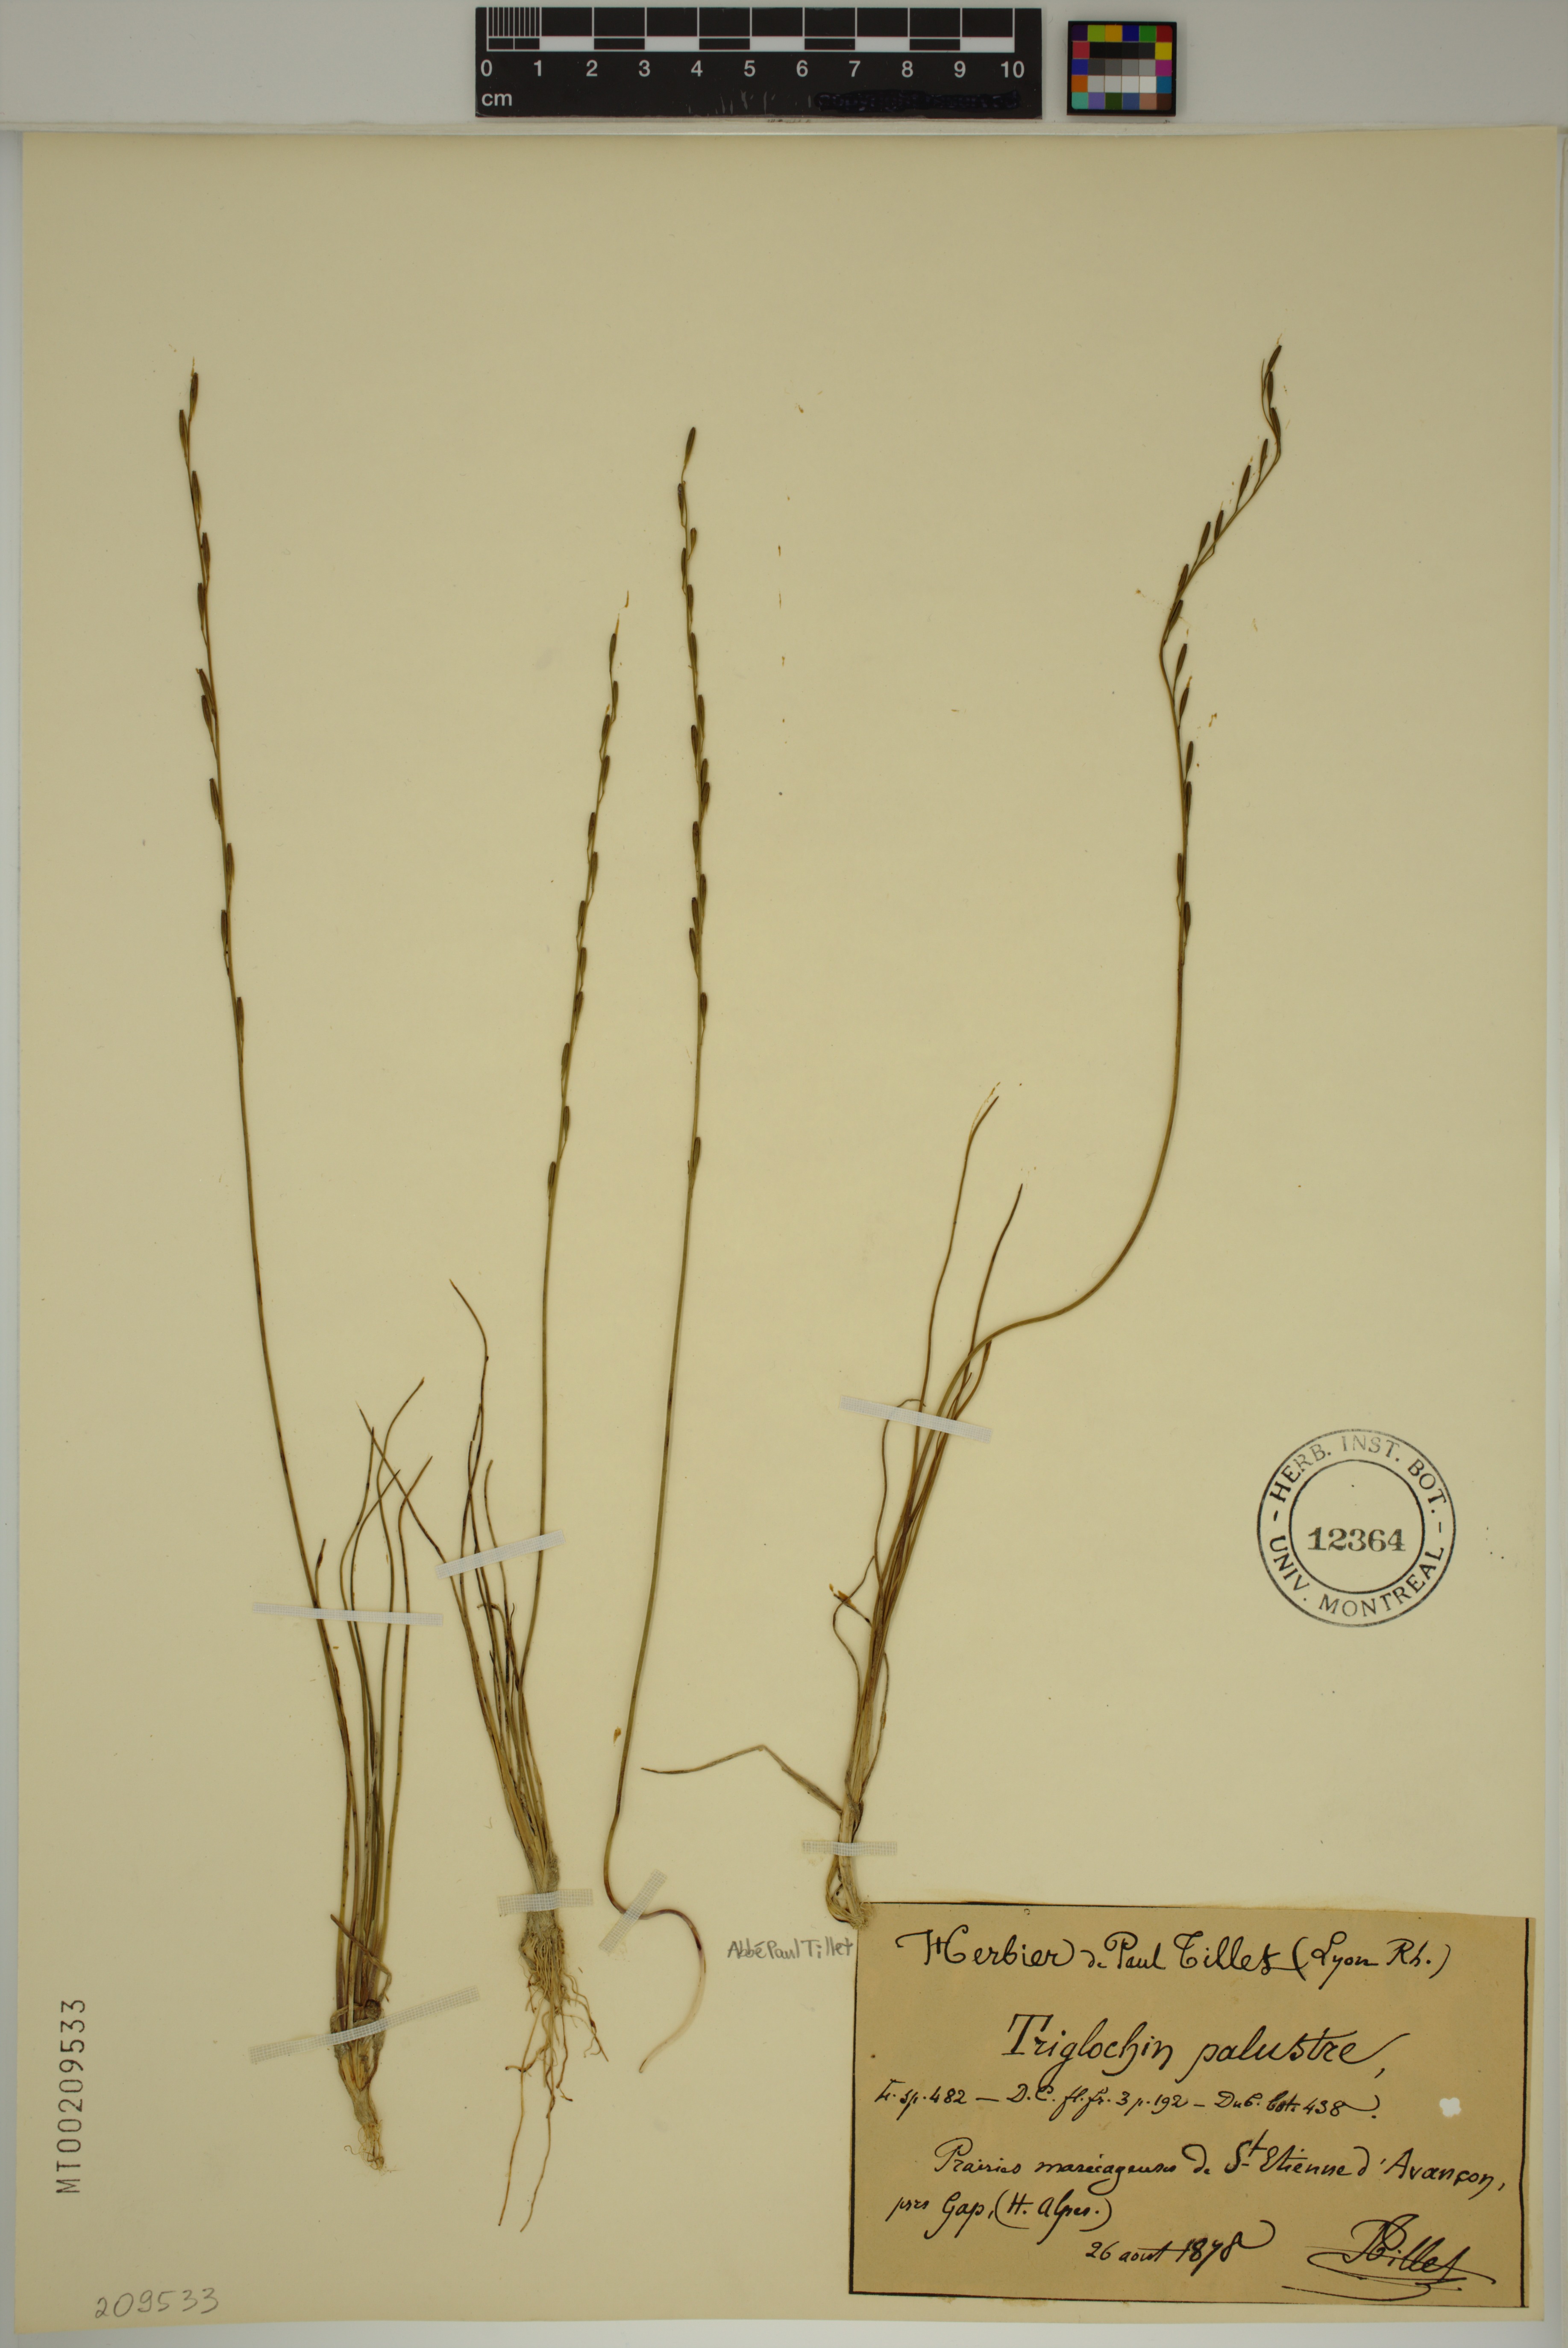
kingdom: Plantae
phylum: Tracheophyta
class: Liliopsida
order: Alismatales
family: Juncaginaceae
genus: Triglochin
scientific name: Triglochin palustris
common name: Marsh arrowgrass
